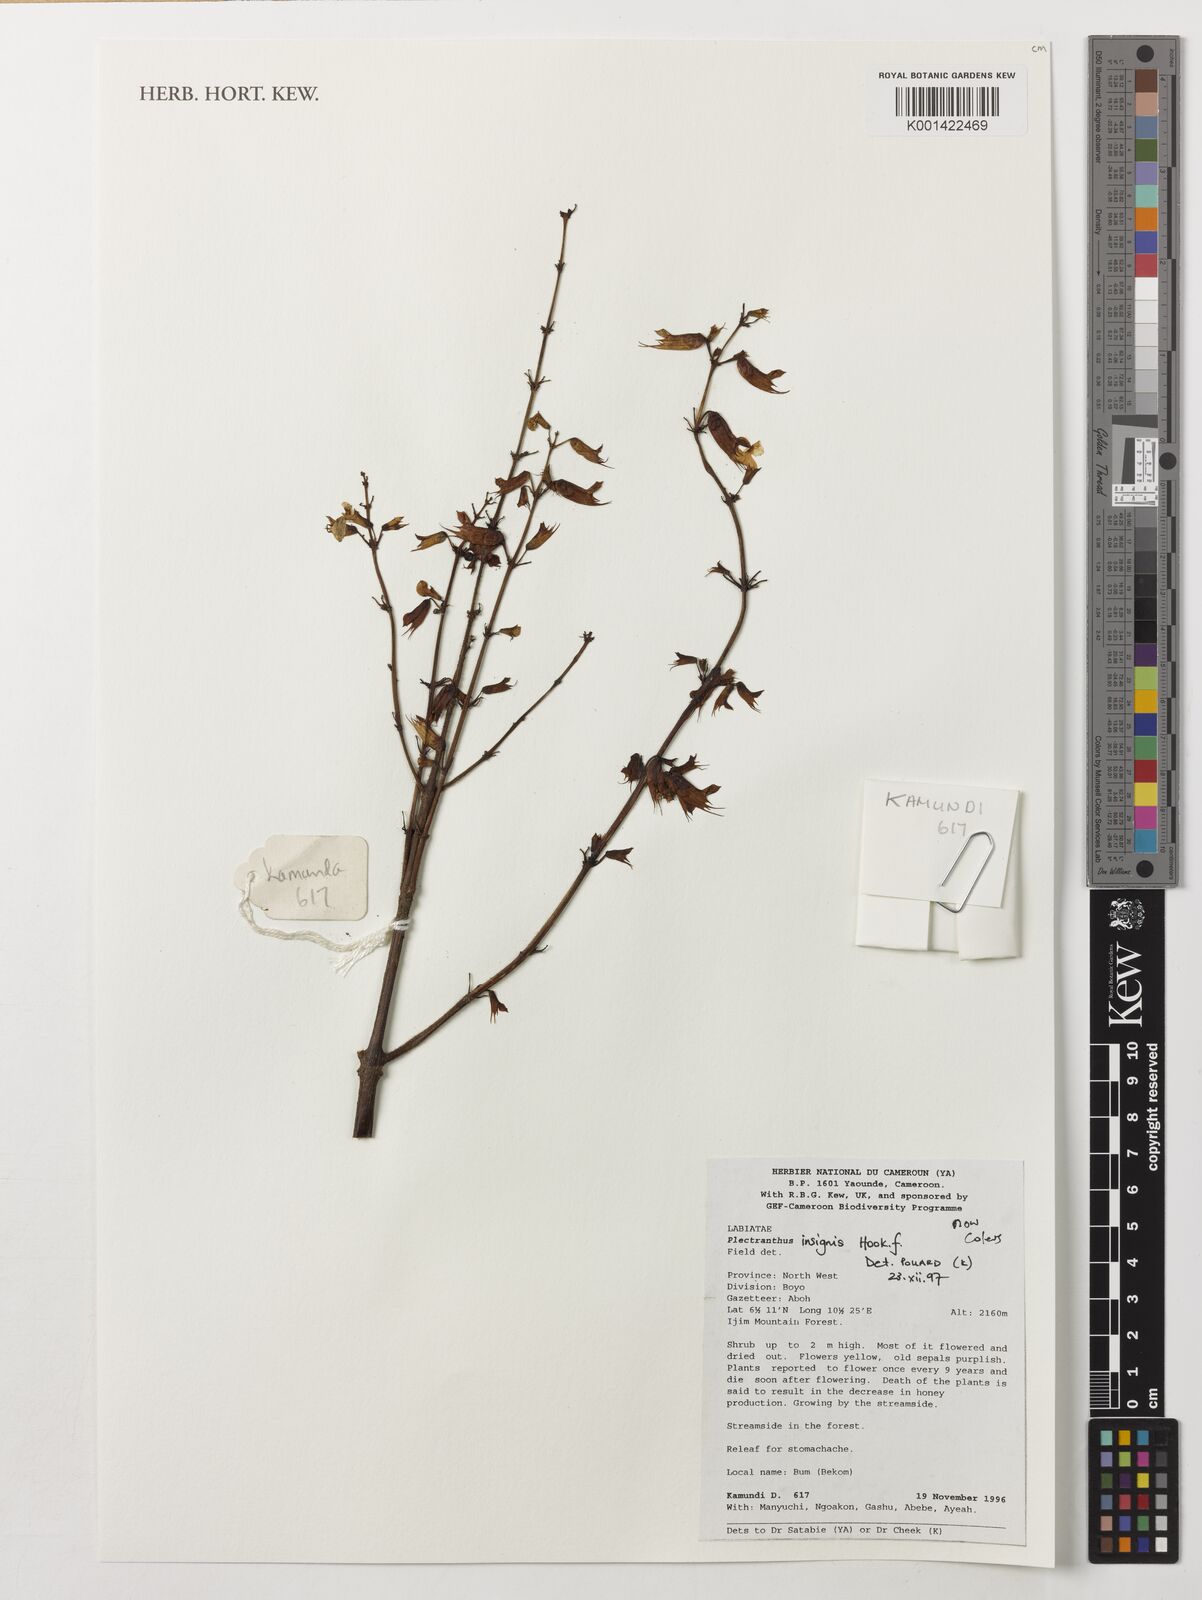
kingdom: Plantae
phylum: Tracheophyta
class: Magnoliopsida
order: Lamiales
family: Lamiaceae
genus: Coleus
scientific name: Coleus insignis
